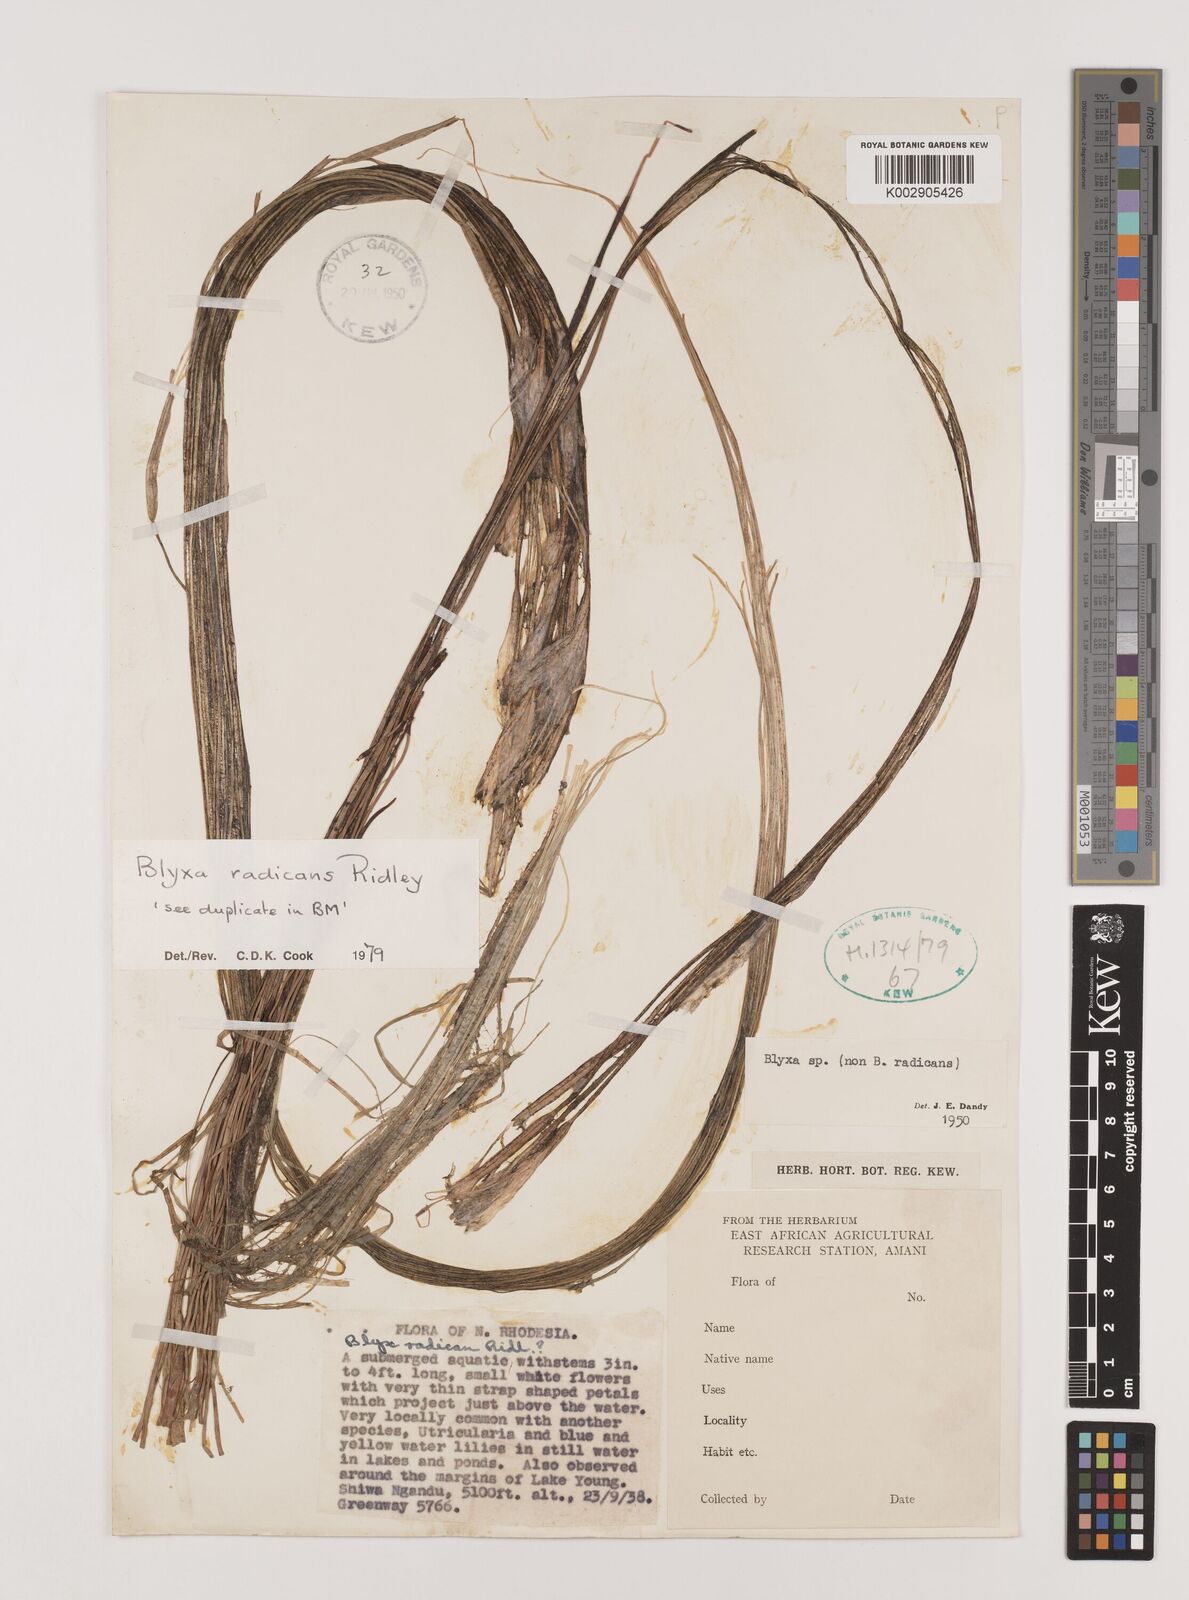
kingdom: Plantae
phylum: Tracheophyta
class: Liliopsida
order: Alismatales
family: Hydrocharitaceae
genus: Blyxa
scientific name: Blyxa radicans
